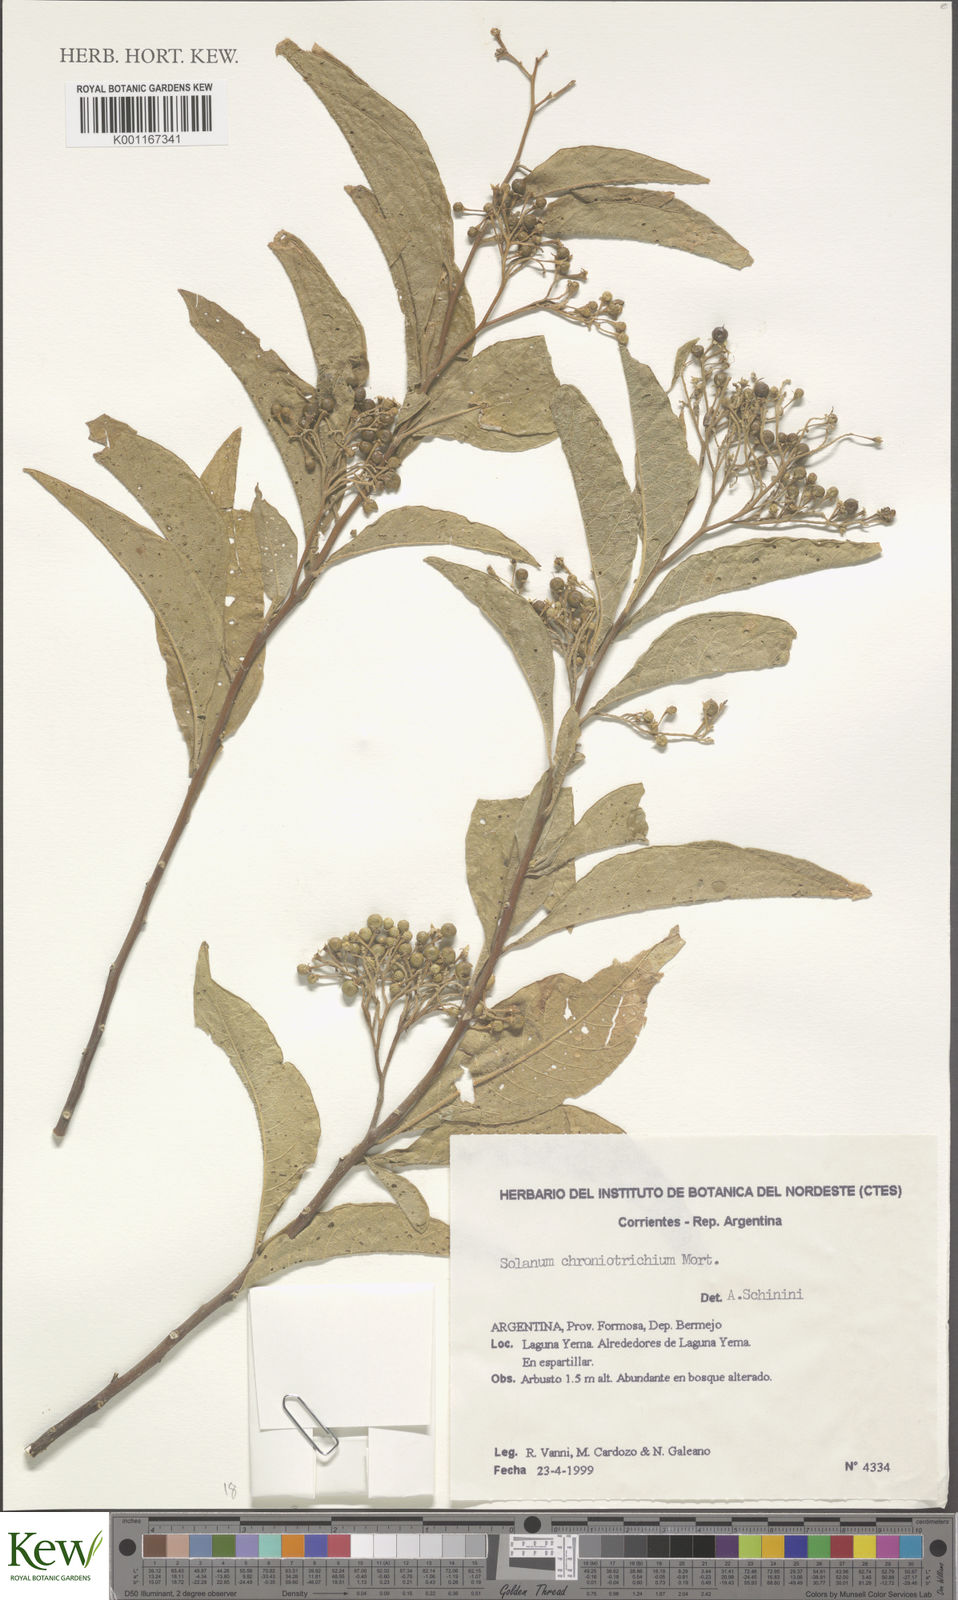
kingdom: Plantae
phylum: Tracheophyta
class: Magnoliopsida
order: Solanales
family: Solanaceae
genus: Solanum
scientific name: Solanum argentinum
